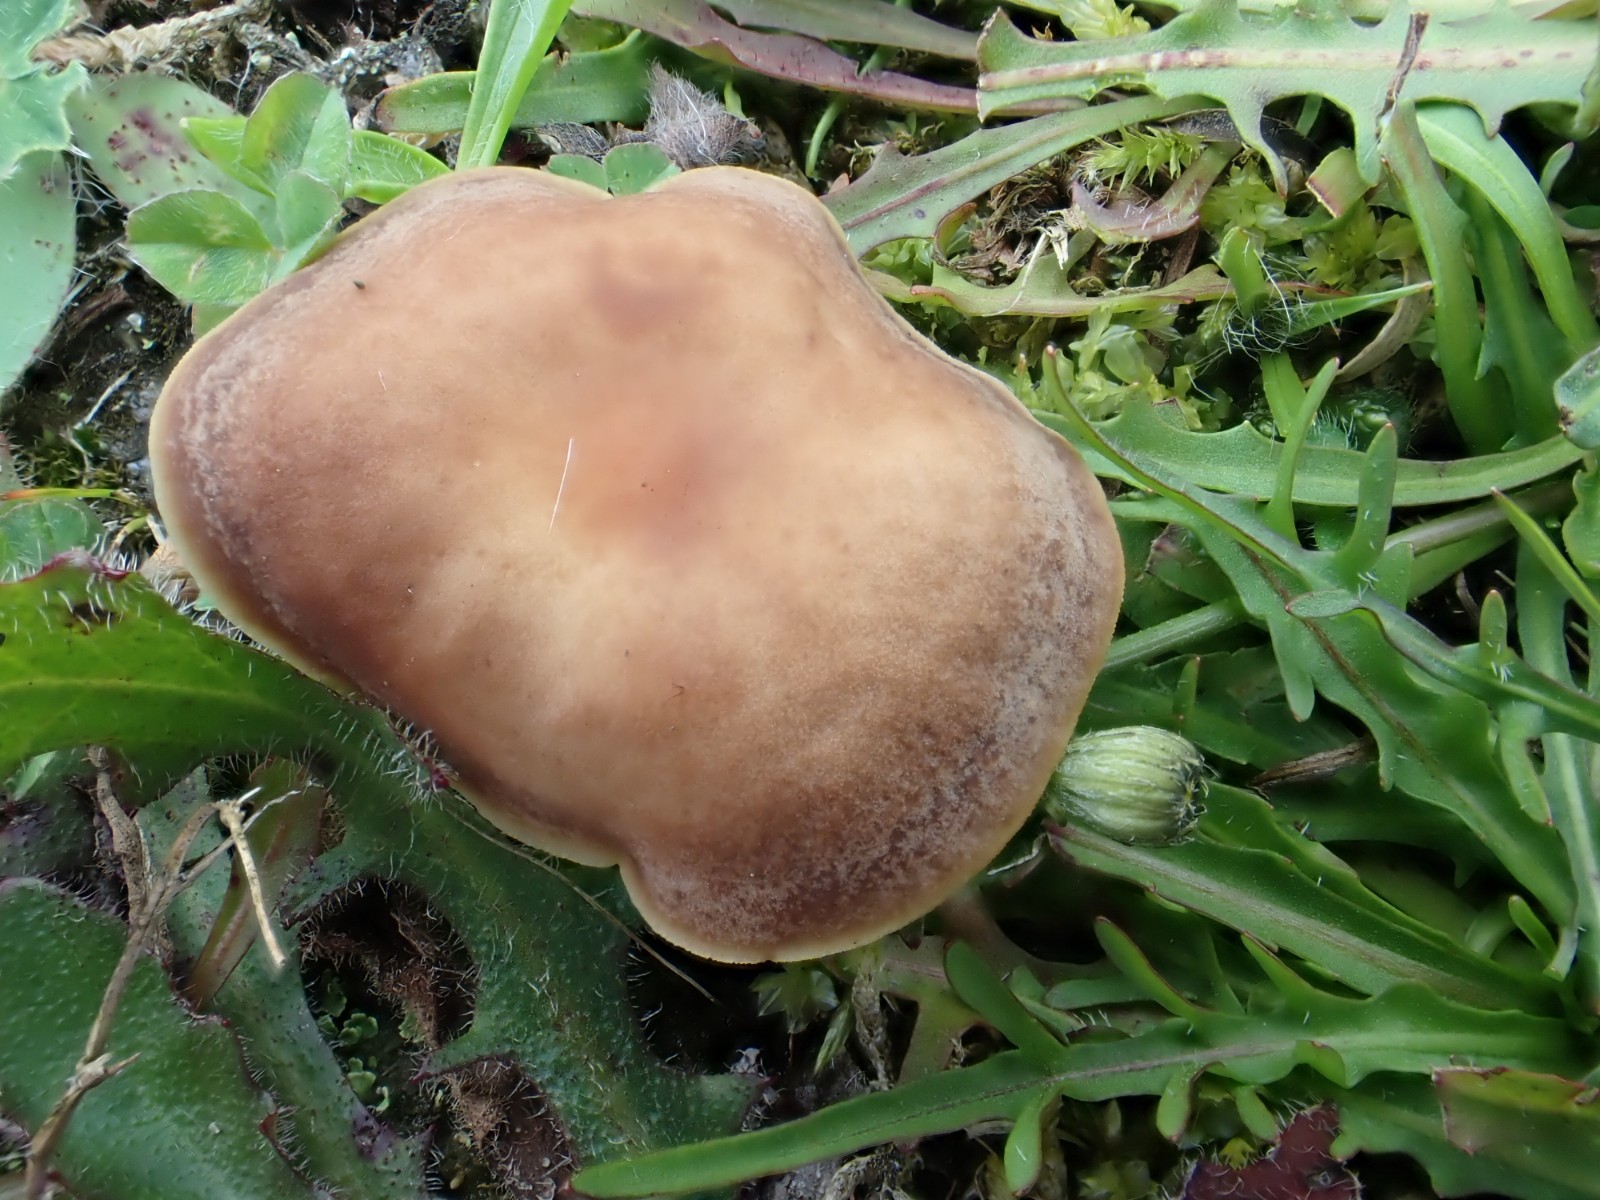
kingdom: Fungi
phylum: Basidiomycota
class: Agaricomycetes
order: Agaricales
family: Omphalotaceae
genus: Gymnopus
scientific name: Gymnopus
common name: fladhat
